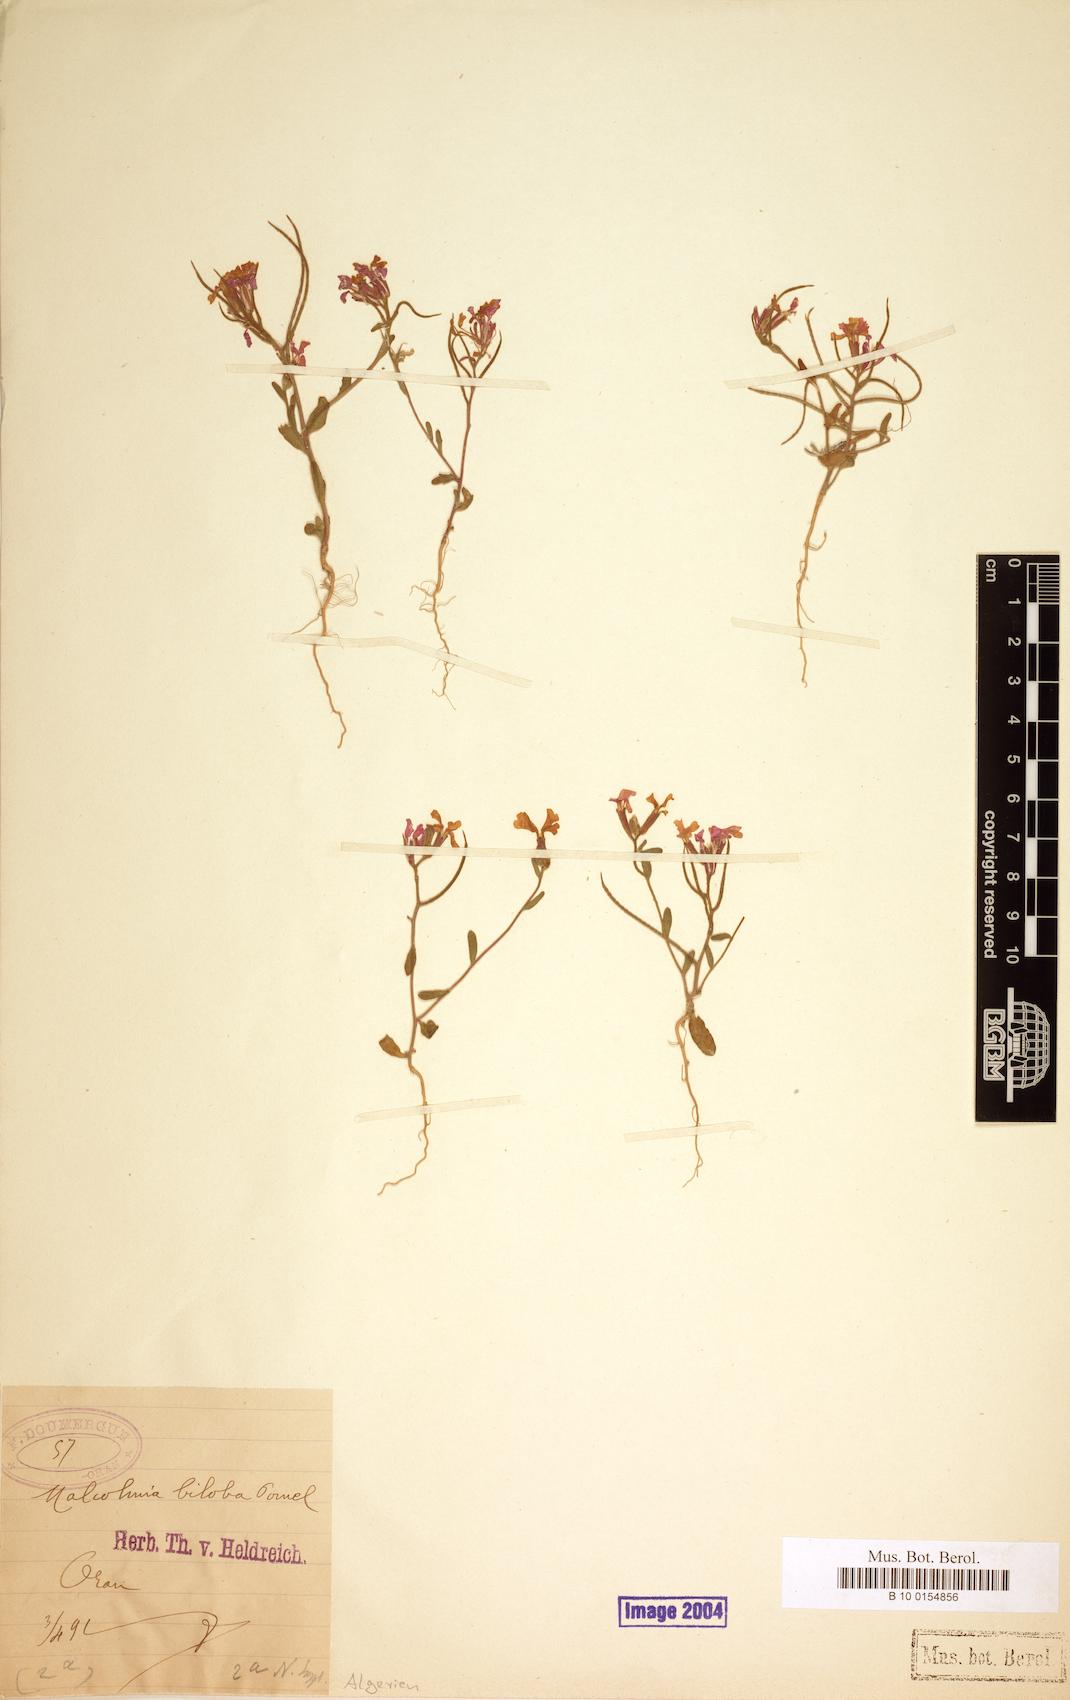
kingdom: Plantae
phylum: Tracheophyta
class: Magnoliopsida
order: Brassicales
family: Brassicaceae
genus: Marcuskochia
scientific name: Marcuskochia arenaria
